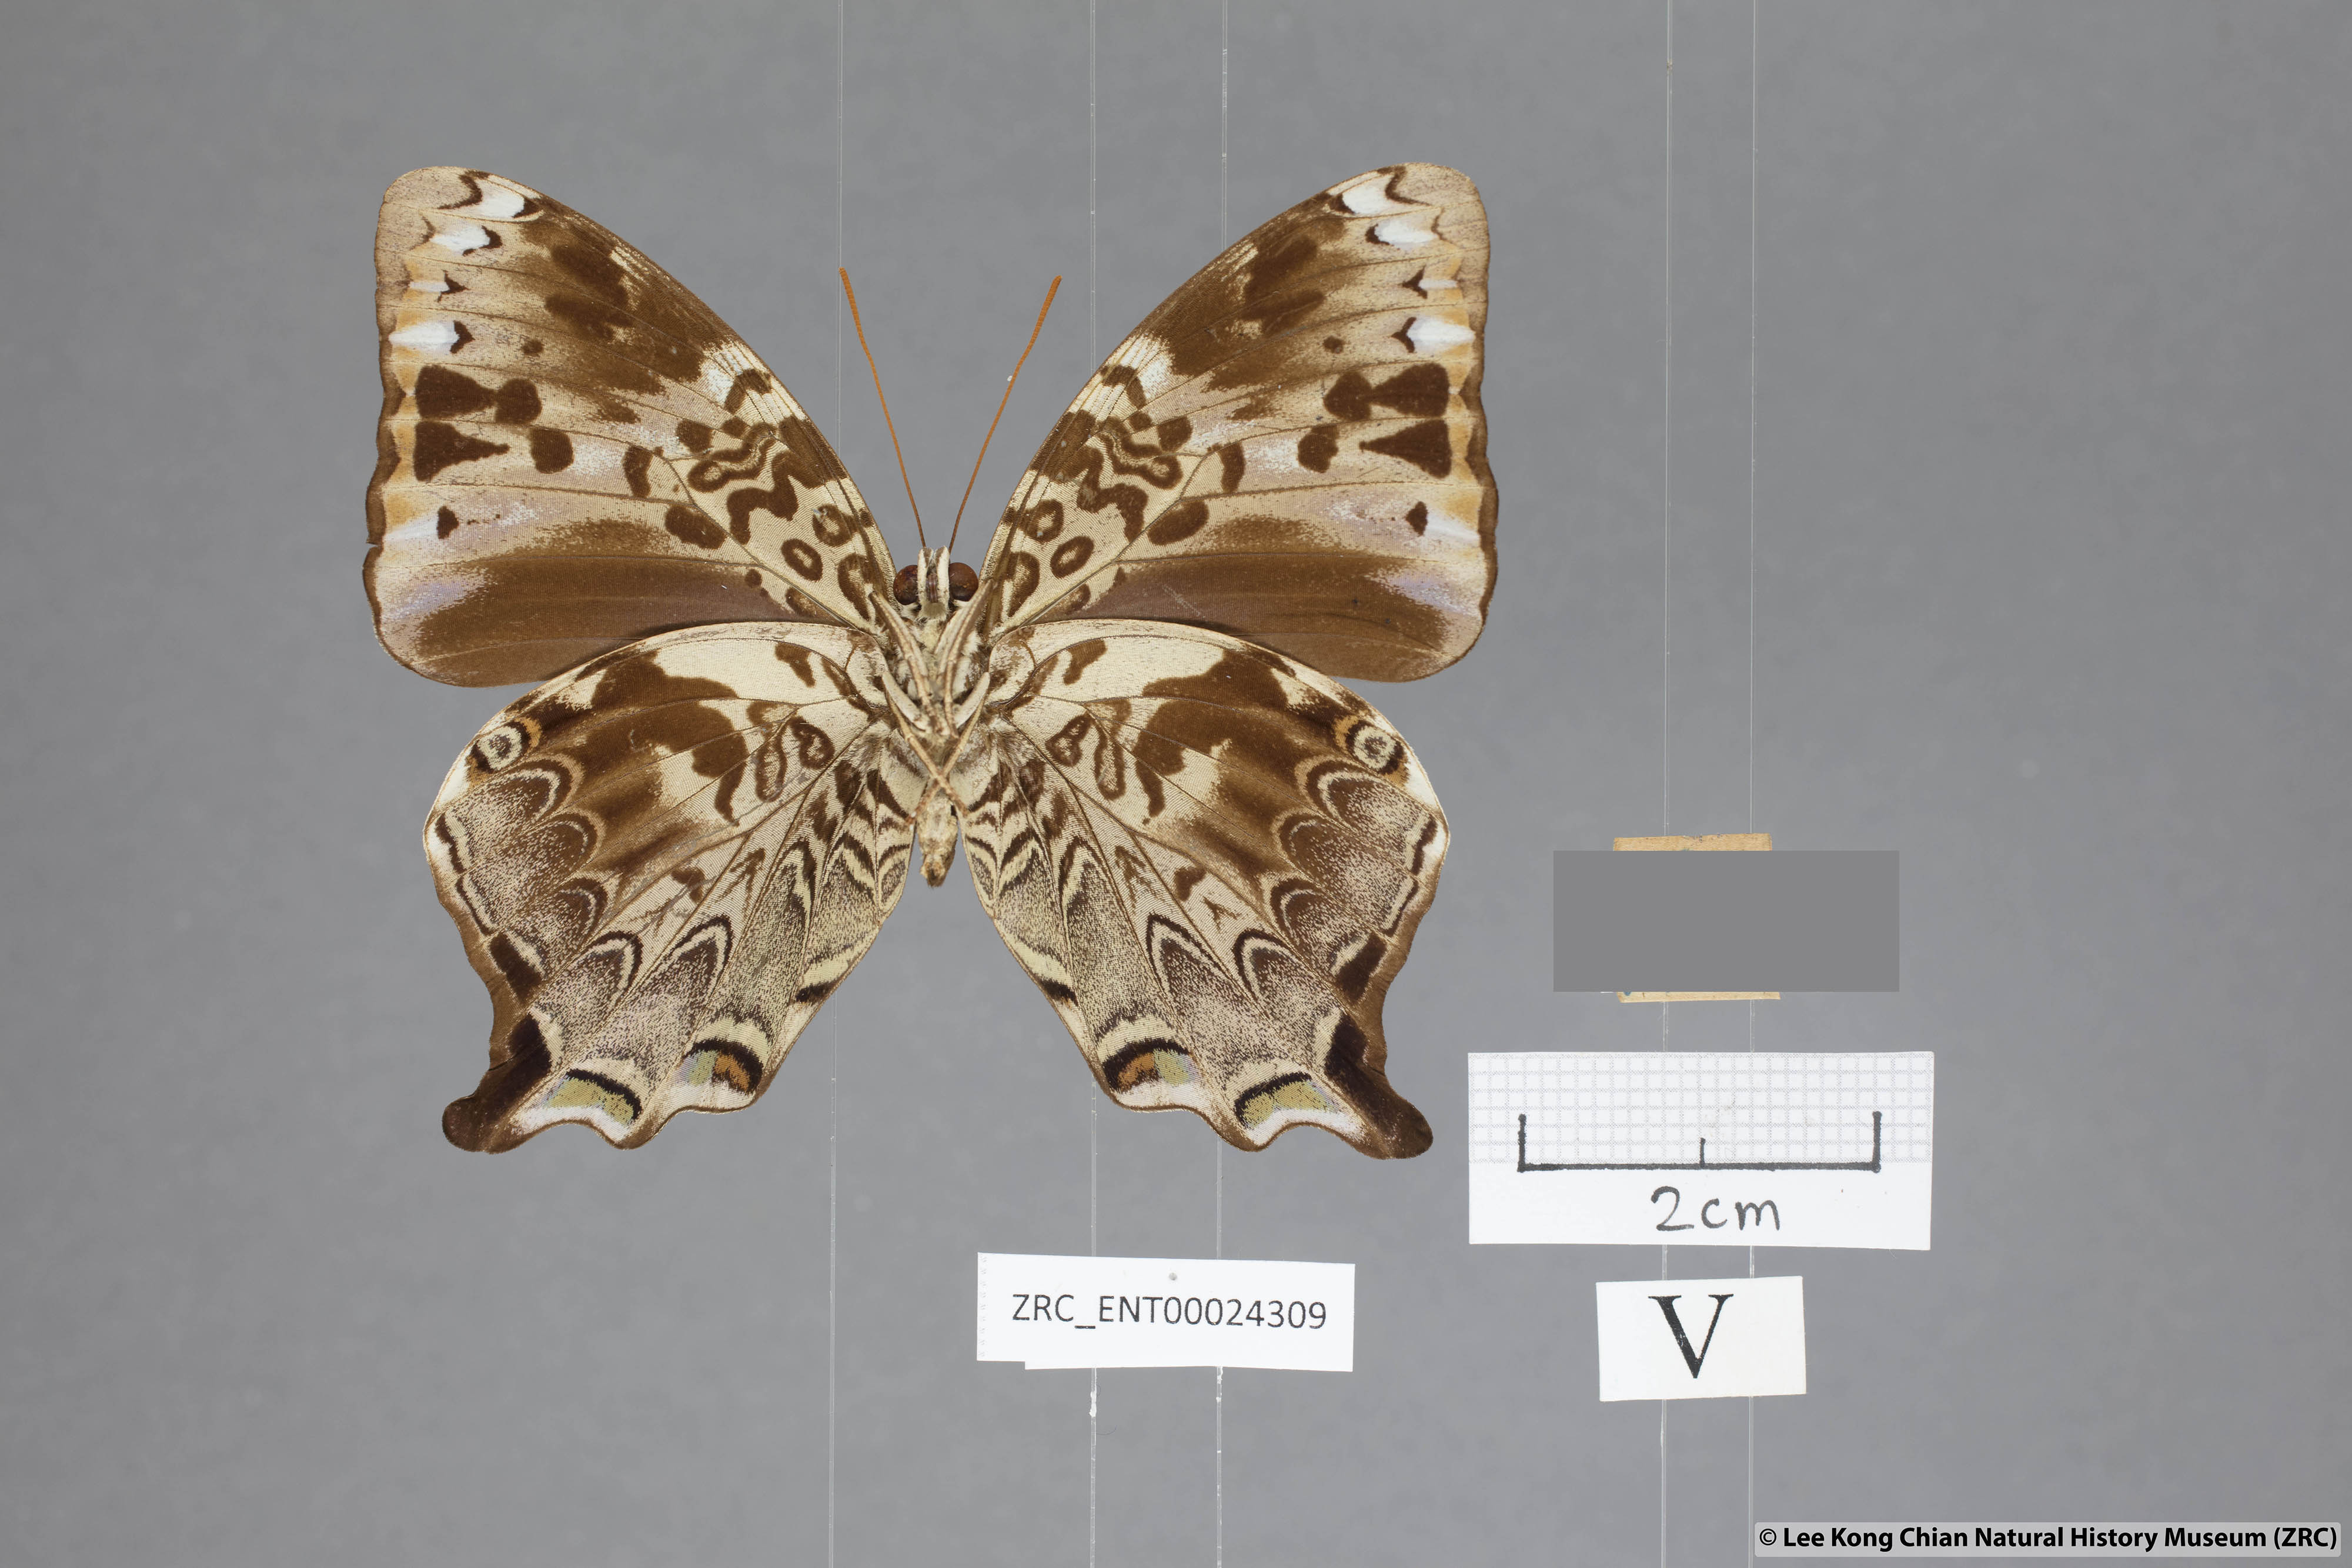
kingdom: Animalia
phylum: Arthropoda
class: Insecta
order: Lepidoptera
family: Nymphalidae
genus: Prothoe
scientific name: Prothoe
